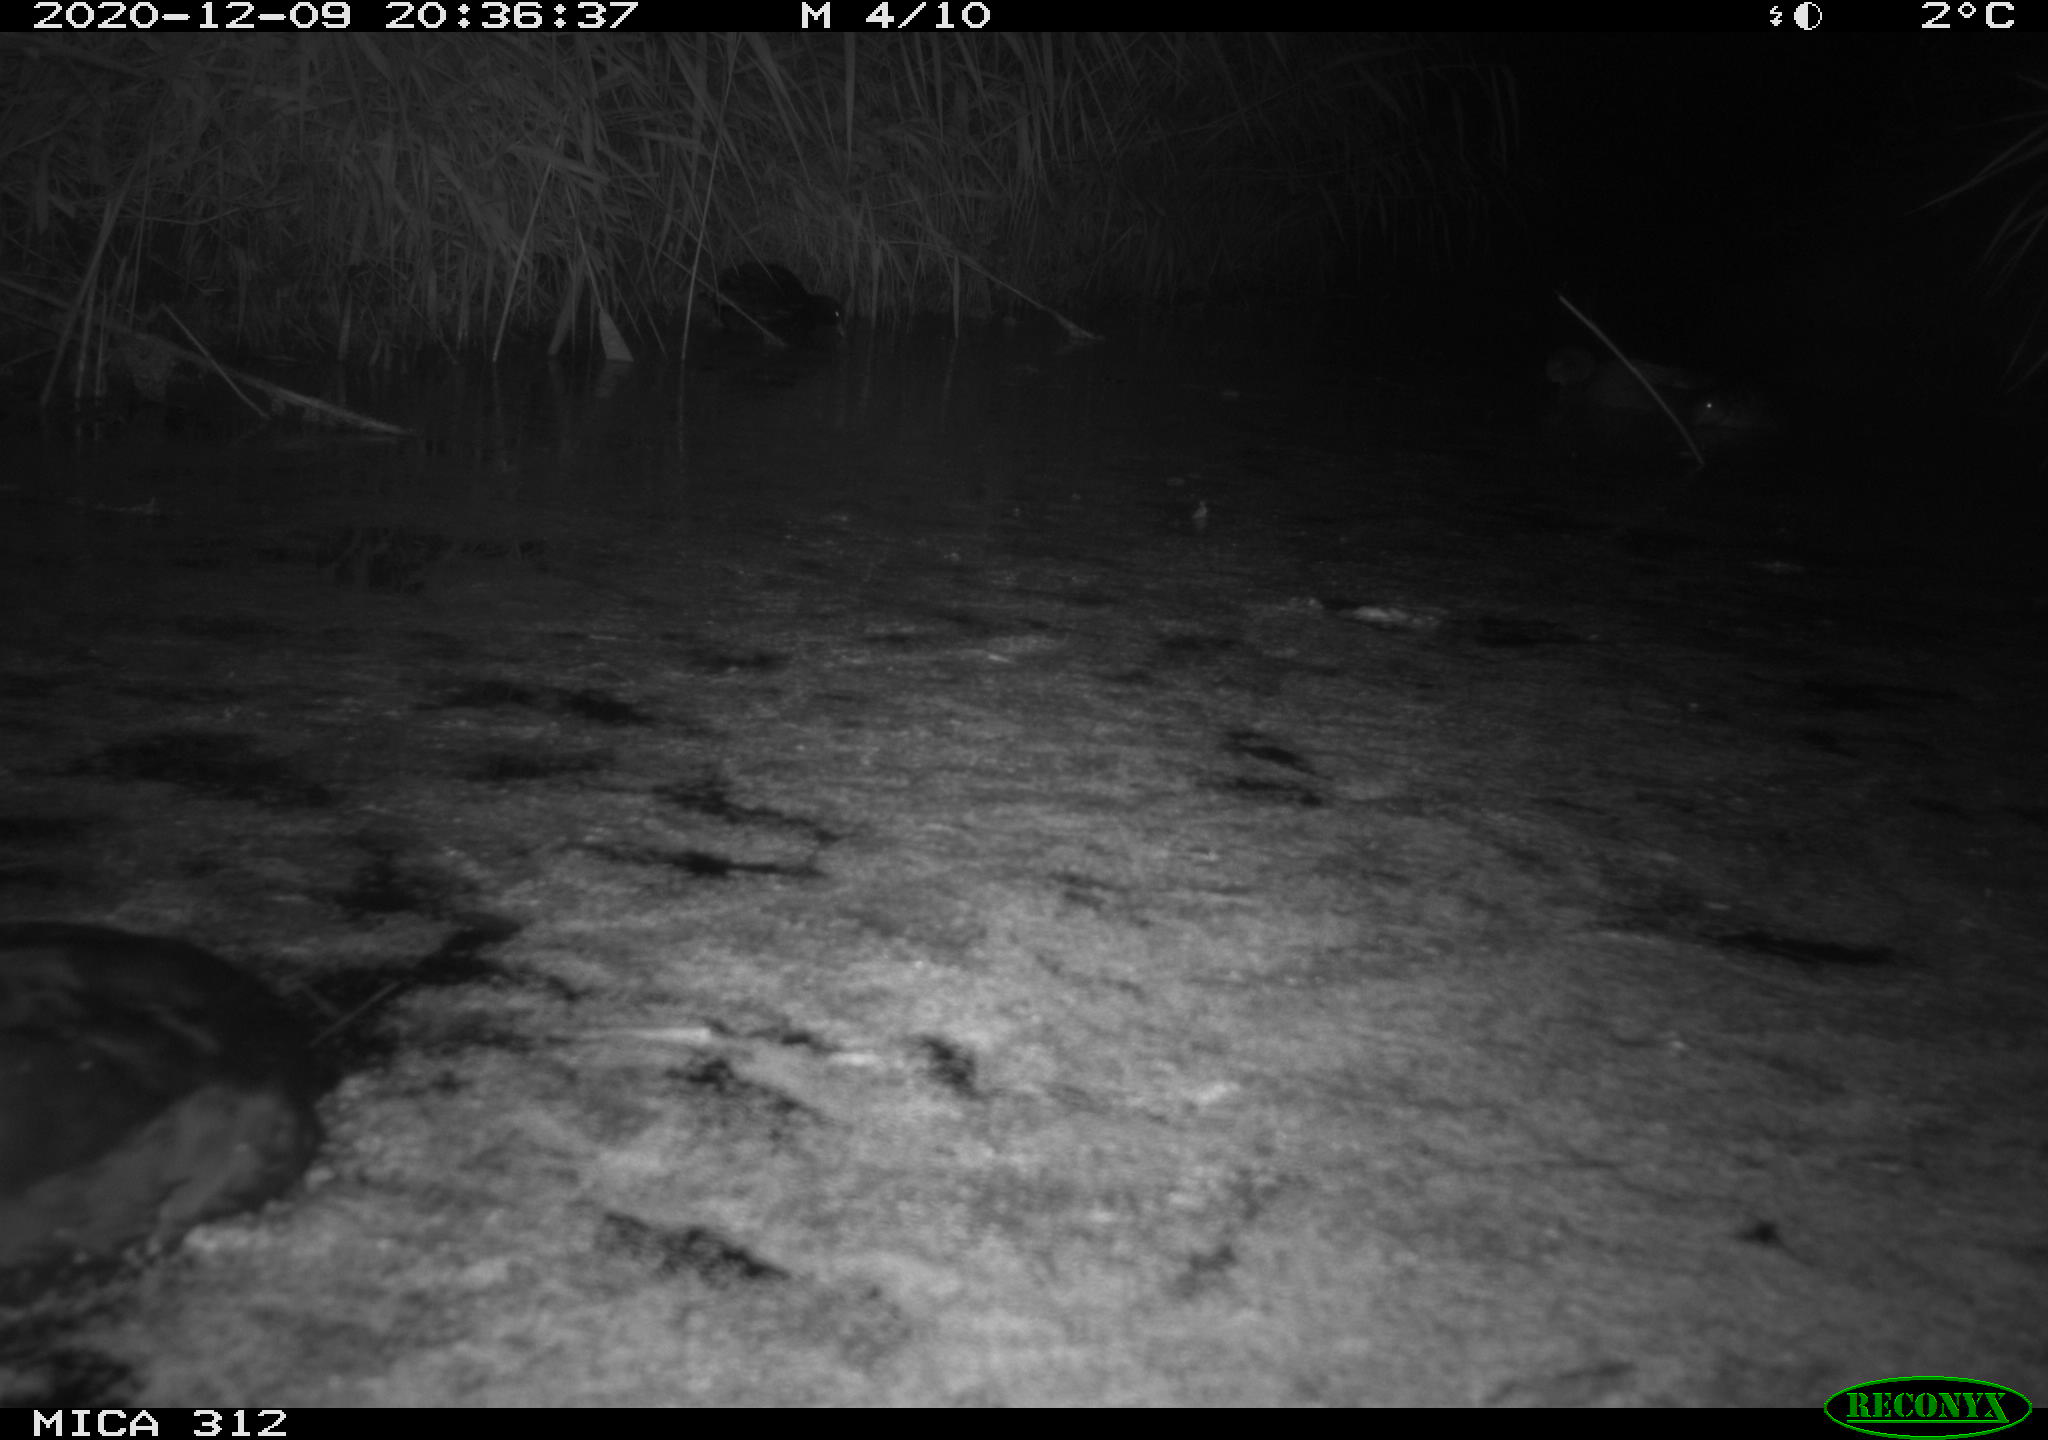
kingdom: Animalia
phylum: Chordata
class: Aves
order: Gruiformes
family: Rallidae
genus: Gallinula
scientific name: Gallinula chloropus
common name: Common moorhen
